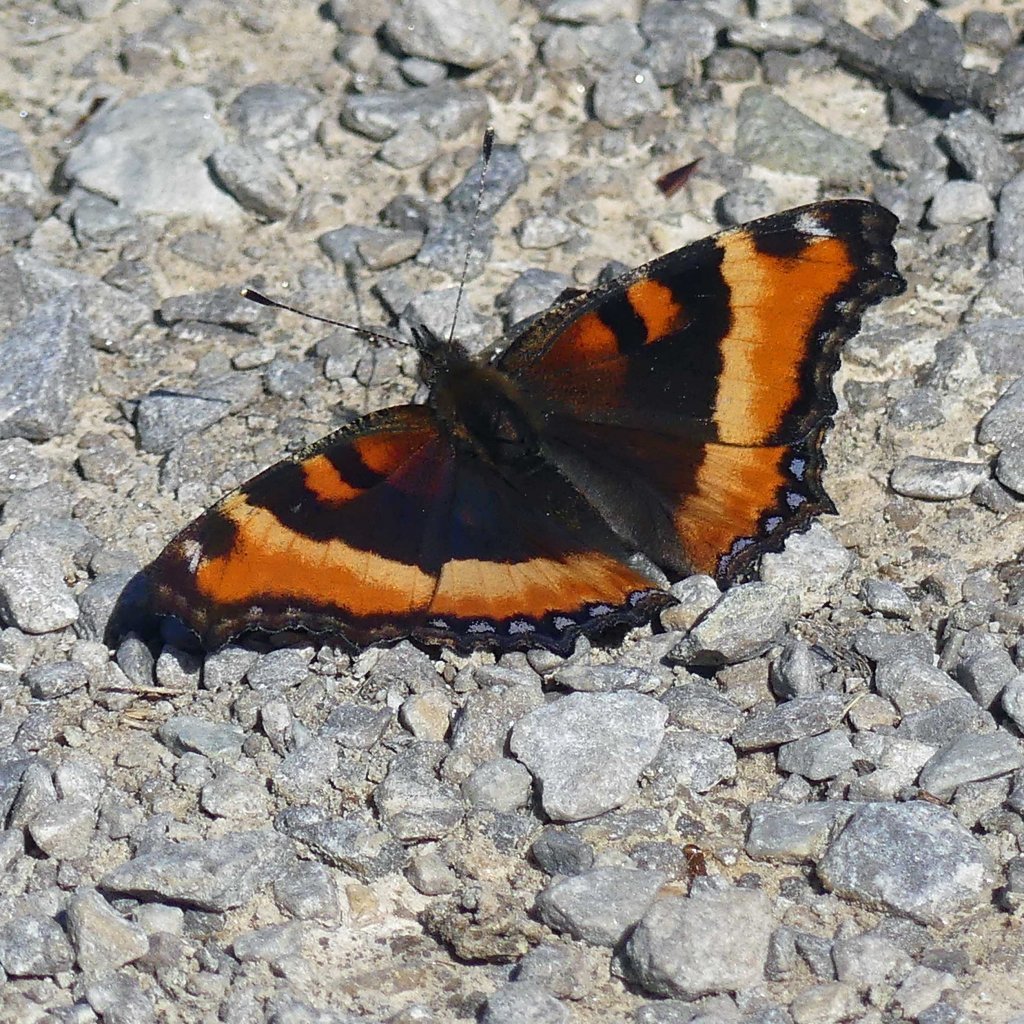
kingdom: Animalia
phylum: Arthropoda
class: Insecta
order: Lepidoptera
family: Nymphalidae
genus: Aglais
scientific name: Aglais milberti
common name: Milbert's Tortoiseshell
